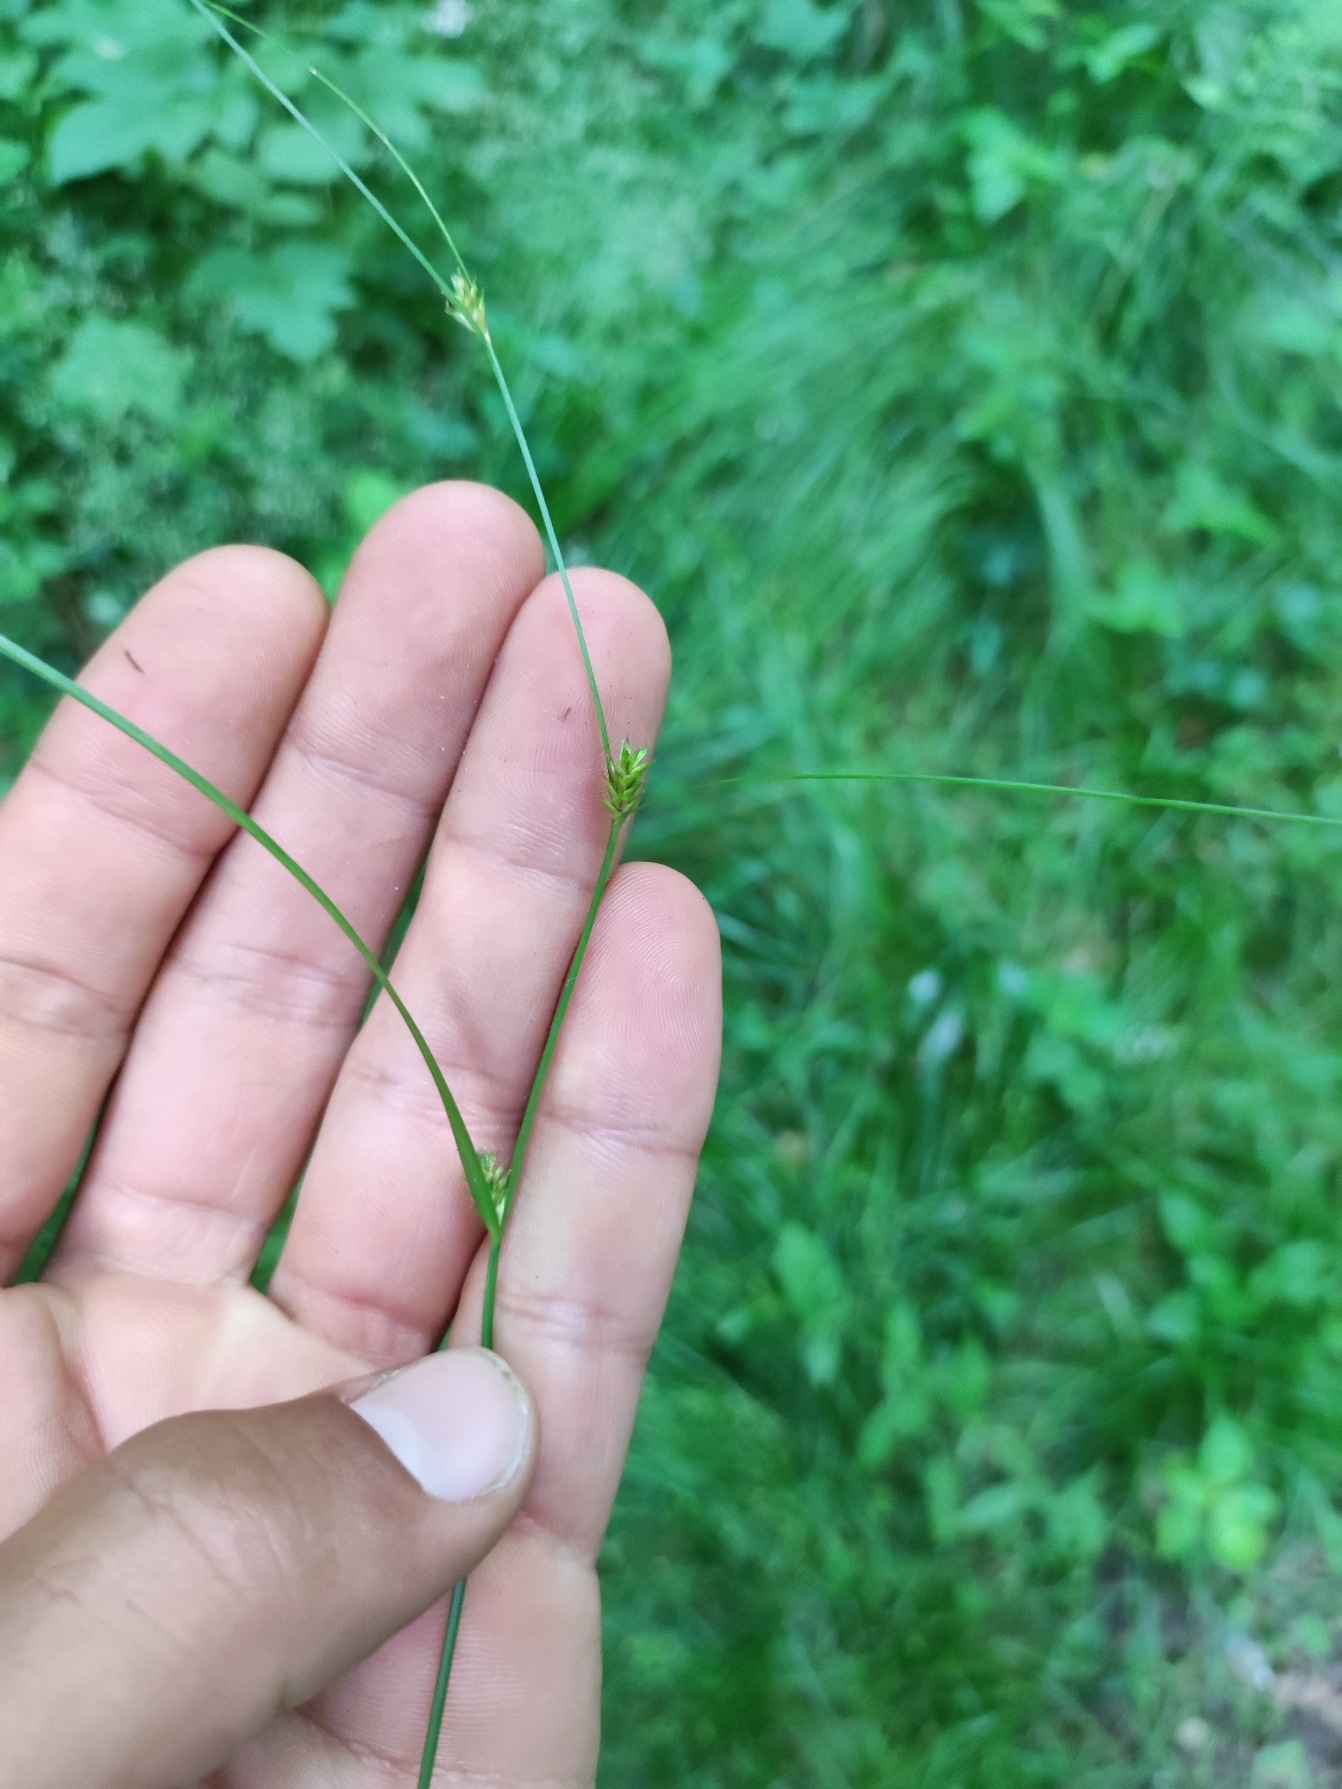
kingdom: Plantae
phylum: Tracheophyta
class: Liliopsida
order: Poales
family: Cyperaceae
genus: Carex
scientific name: Carex remota
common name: Akselblomstret star
